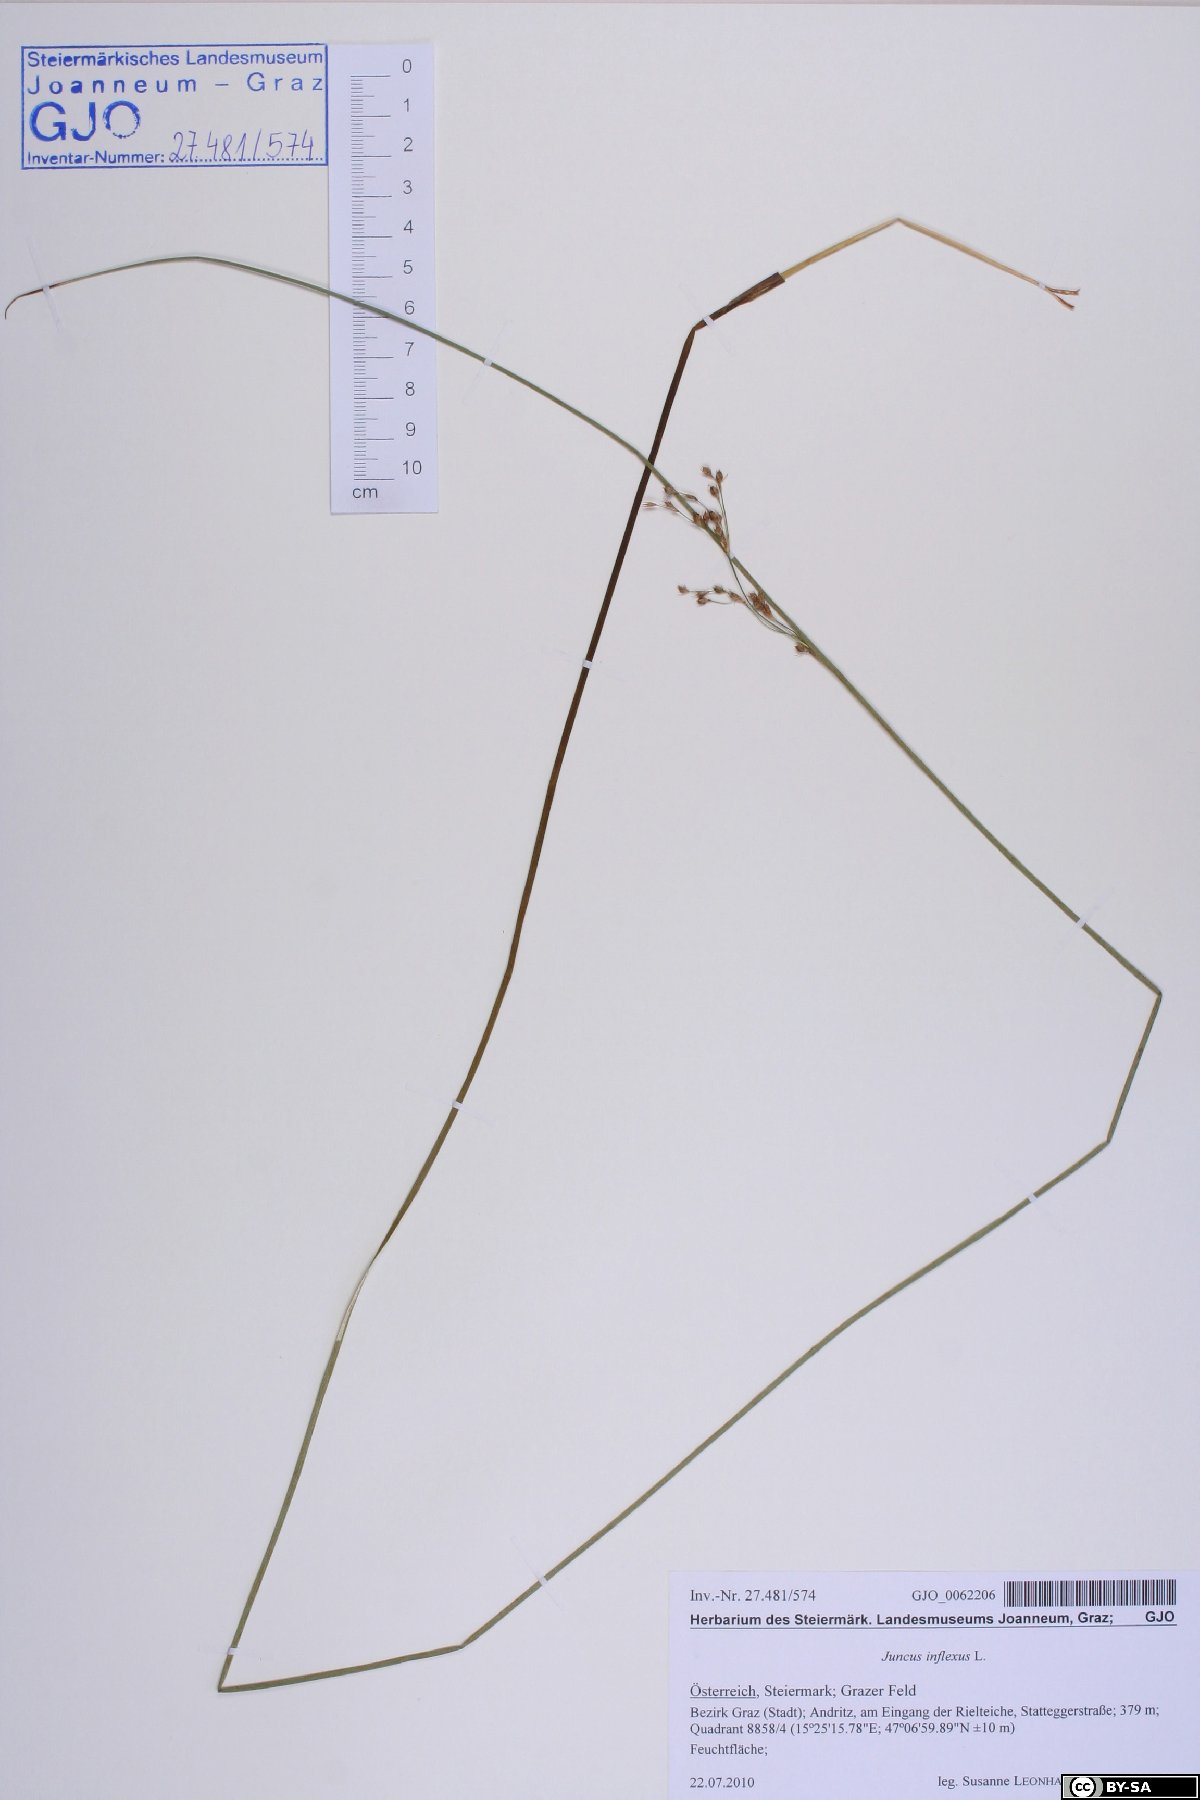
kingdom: Plantae
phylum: Tracheophyta
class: Liliopsida
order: Poales
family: Juncaceae
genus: Juncus
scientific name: Juncus inflexus
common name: Hard rush
